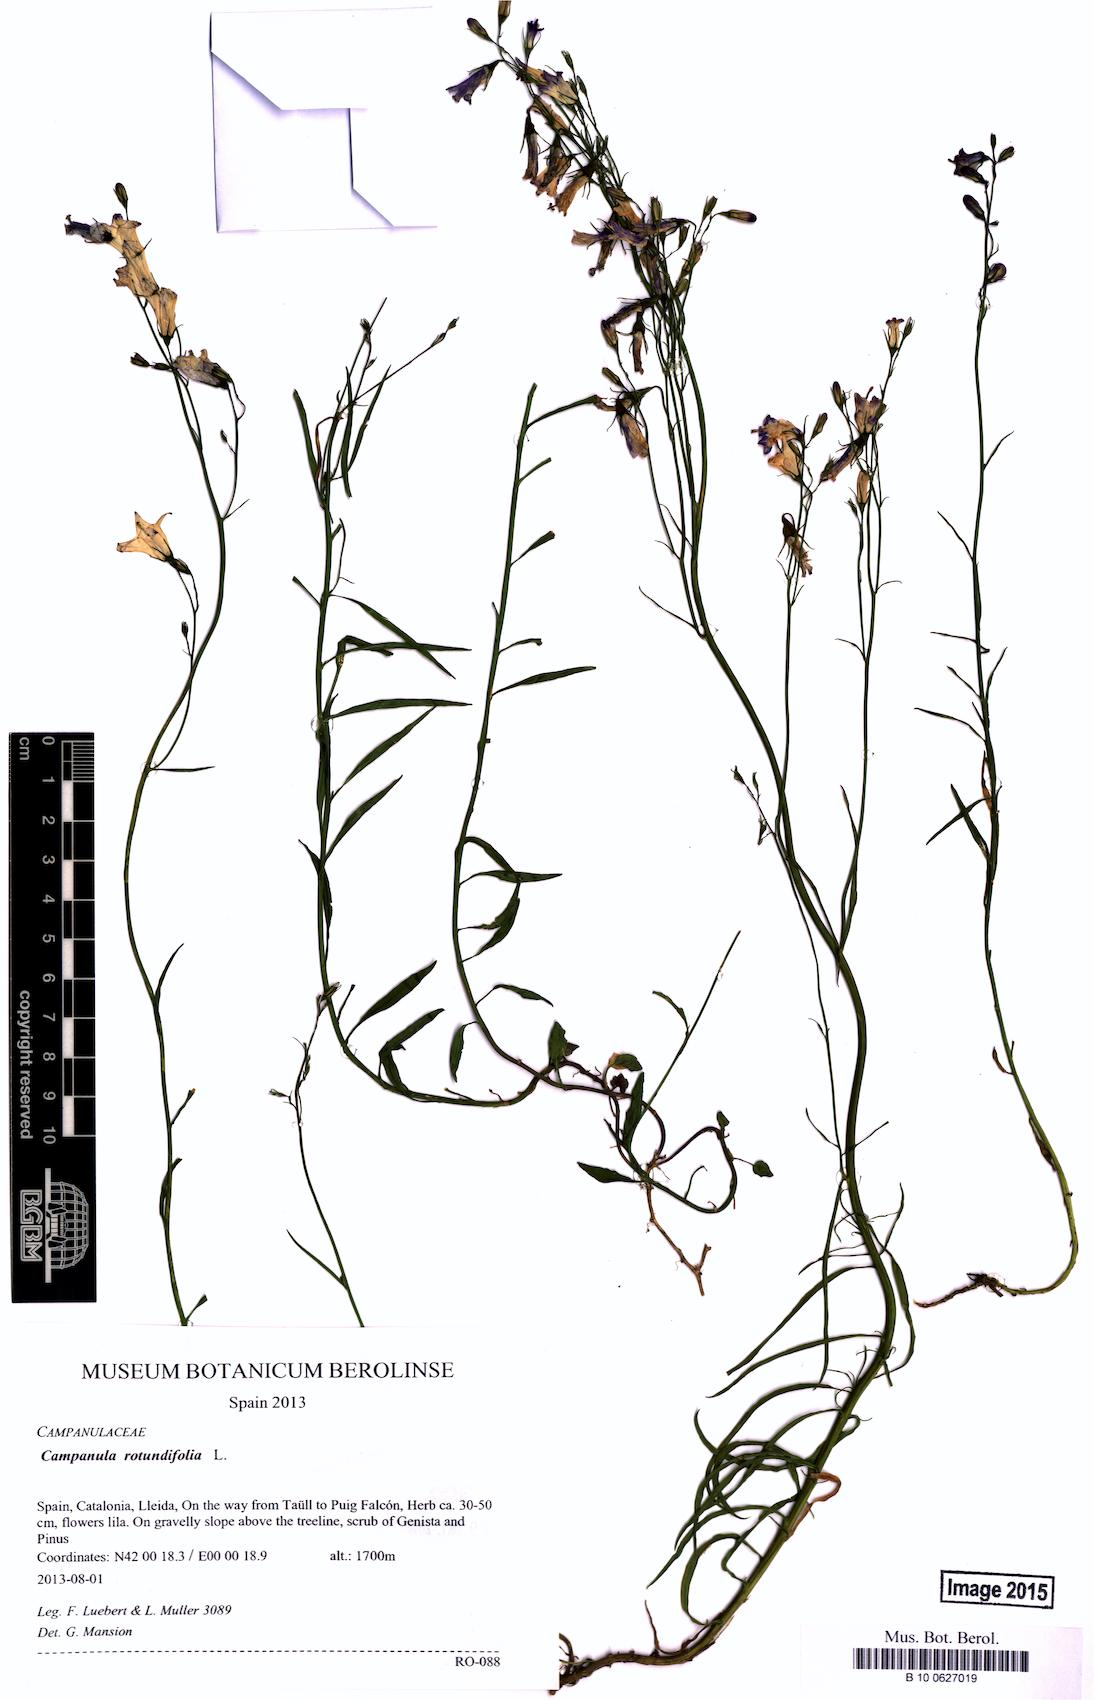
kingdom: Plantae
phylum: Tracheophyta
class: Magnoliopsida
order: Asterales
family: Campanulaceae
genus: Campanula
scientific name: Campanula rotundifolia
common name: Harebell
